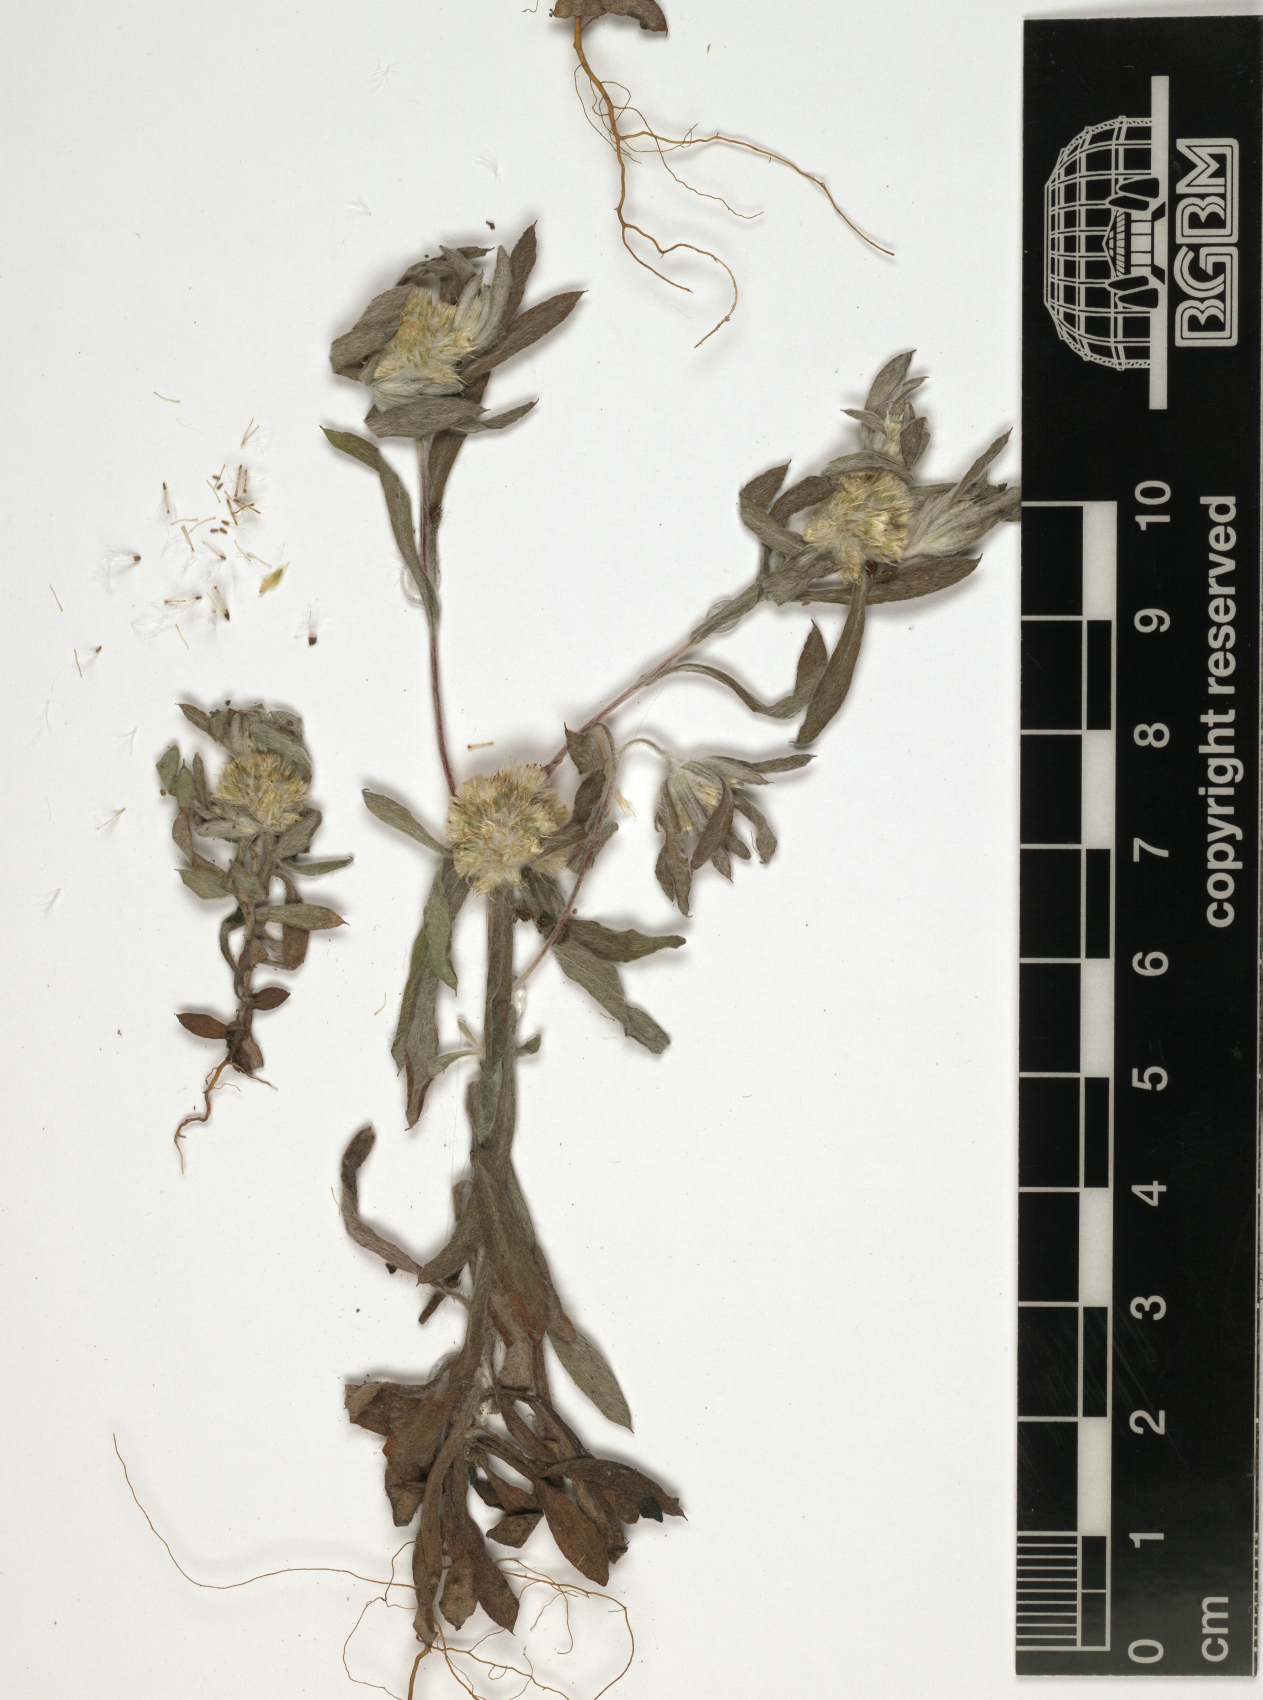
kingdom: Plantae
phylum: Tracheophyta
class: Magnoliopsida
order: Asterales
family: Asteraceae
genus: Filago
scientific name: Filago abyssinica
